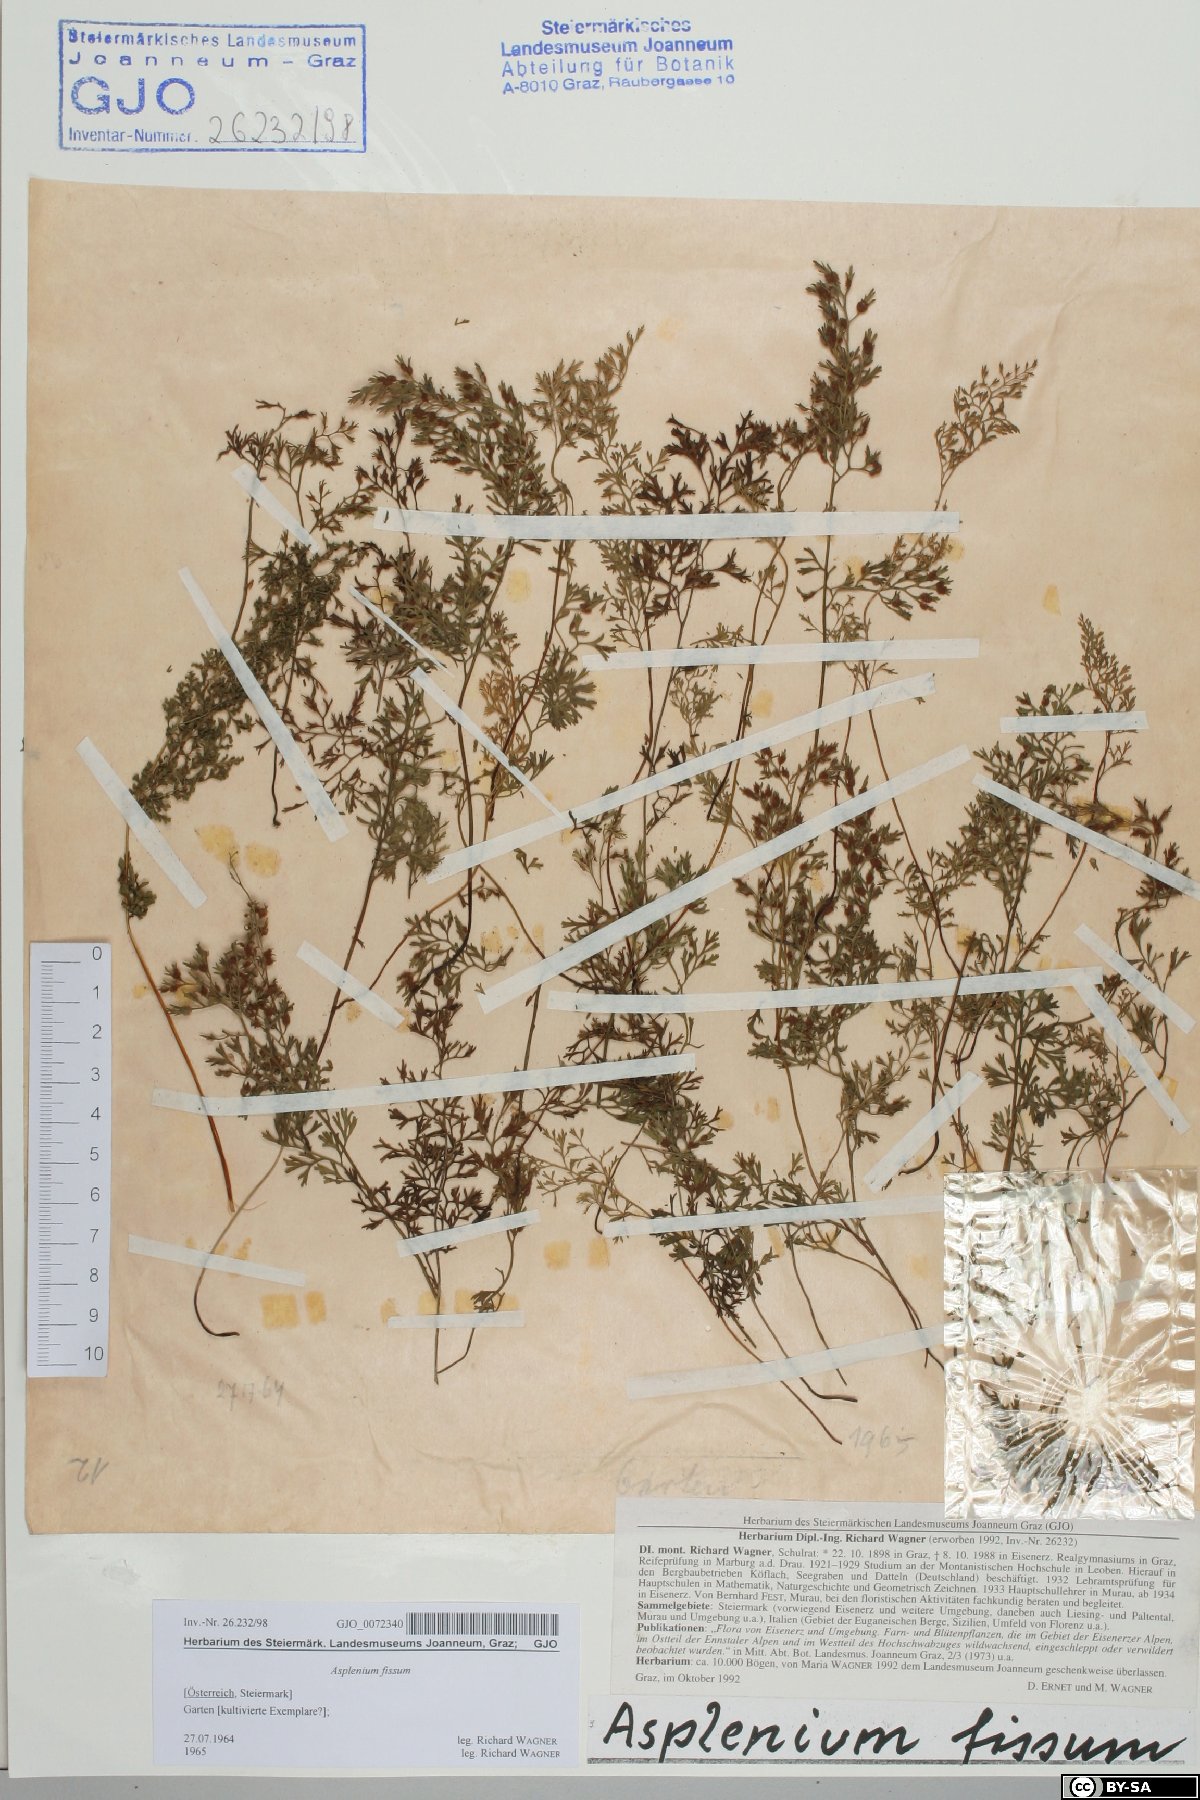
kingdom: Plantae
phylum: Tracheophyta
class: Polypodiopsida
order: Polypodiales
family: Aspleniaceae
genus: Asplenium
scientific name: Asplenium fissum
